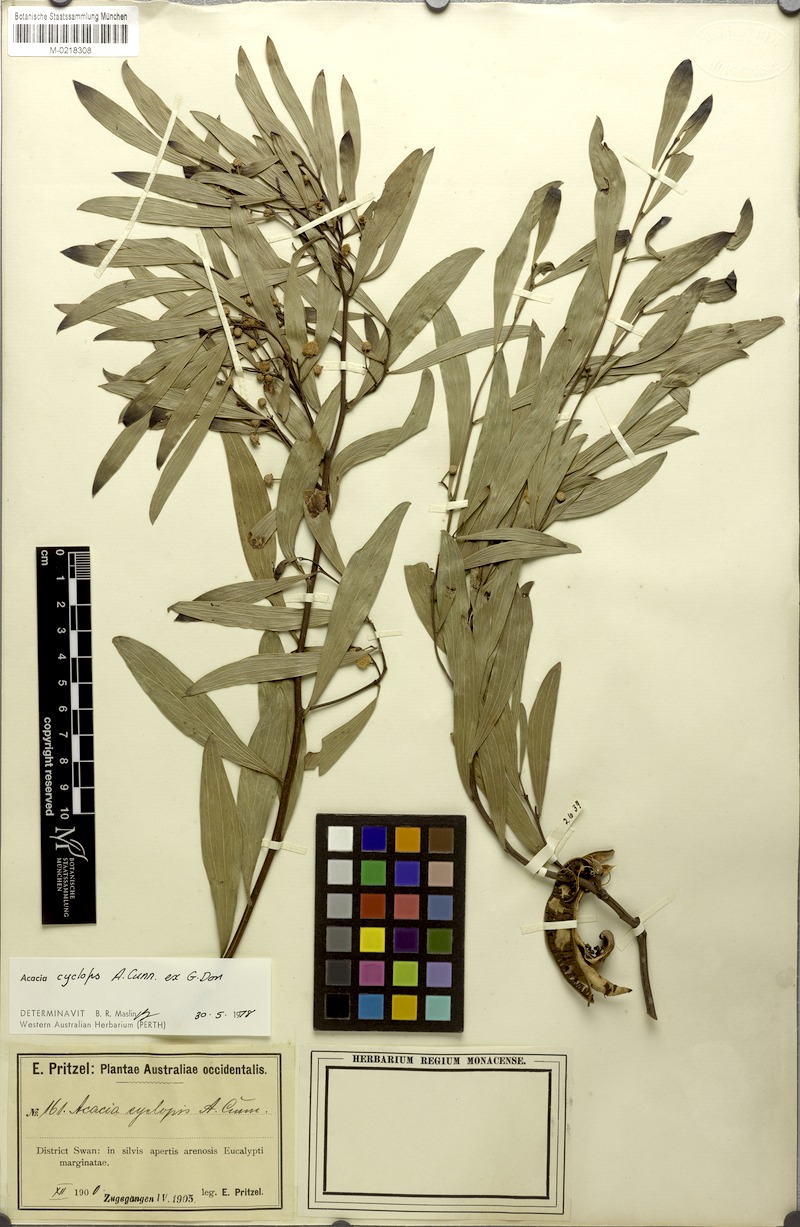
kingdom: Plantae
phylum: Tracheophyta
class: Magnoliopsida
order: Fabales
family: Fabaceae
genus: Acacia
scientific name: Acacia cyclops
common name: Coastal wattle
